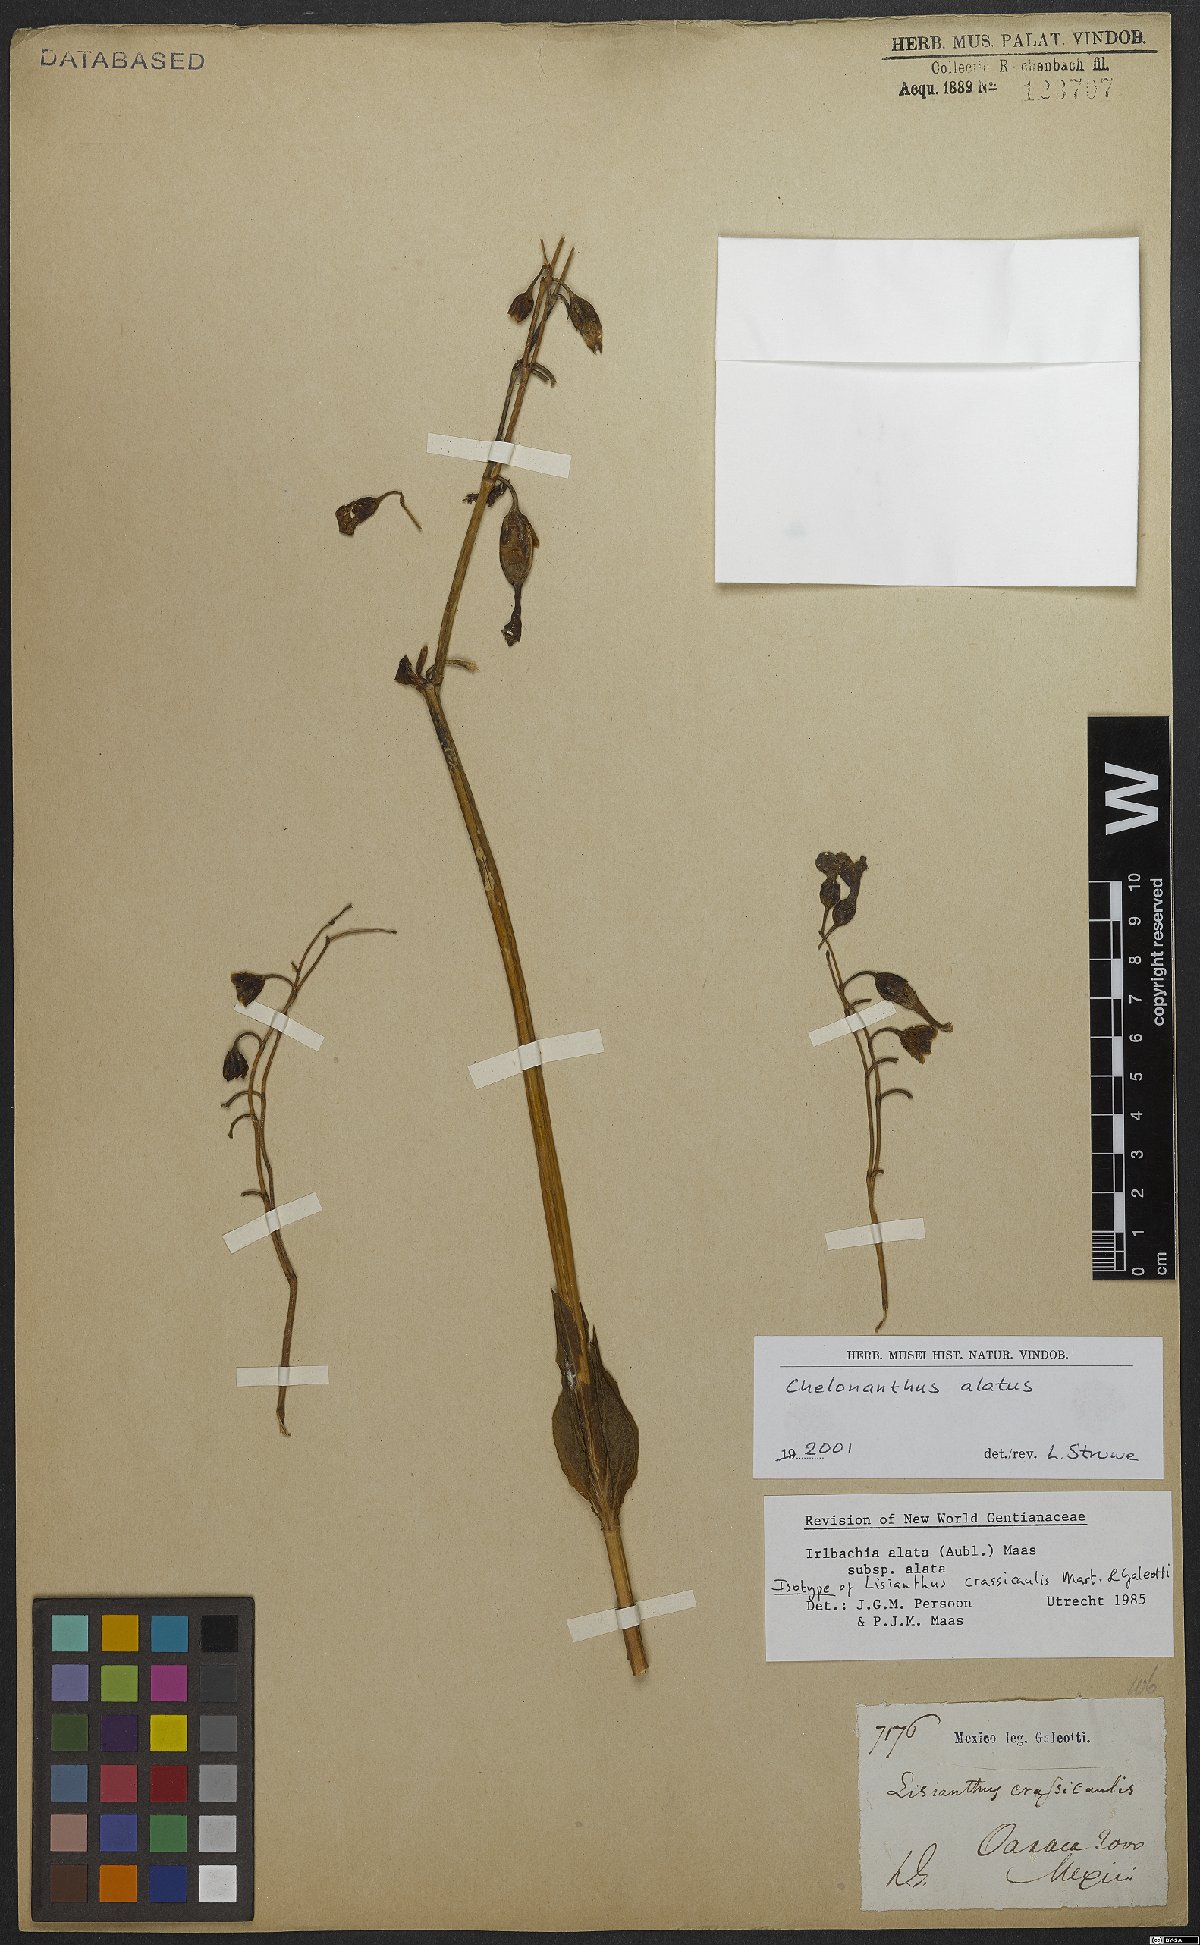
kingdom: Plantae
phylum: Tracheophyta
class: Magnoliopsida
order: Gentianales
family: Gentianaceae
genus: Chelonanthus
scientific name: Chelonanthus alatus
